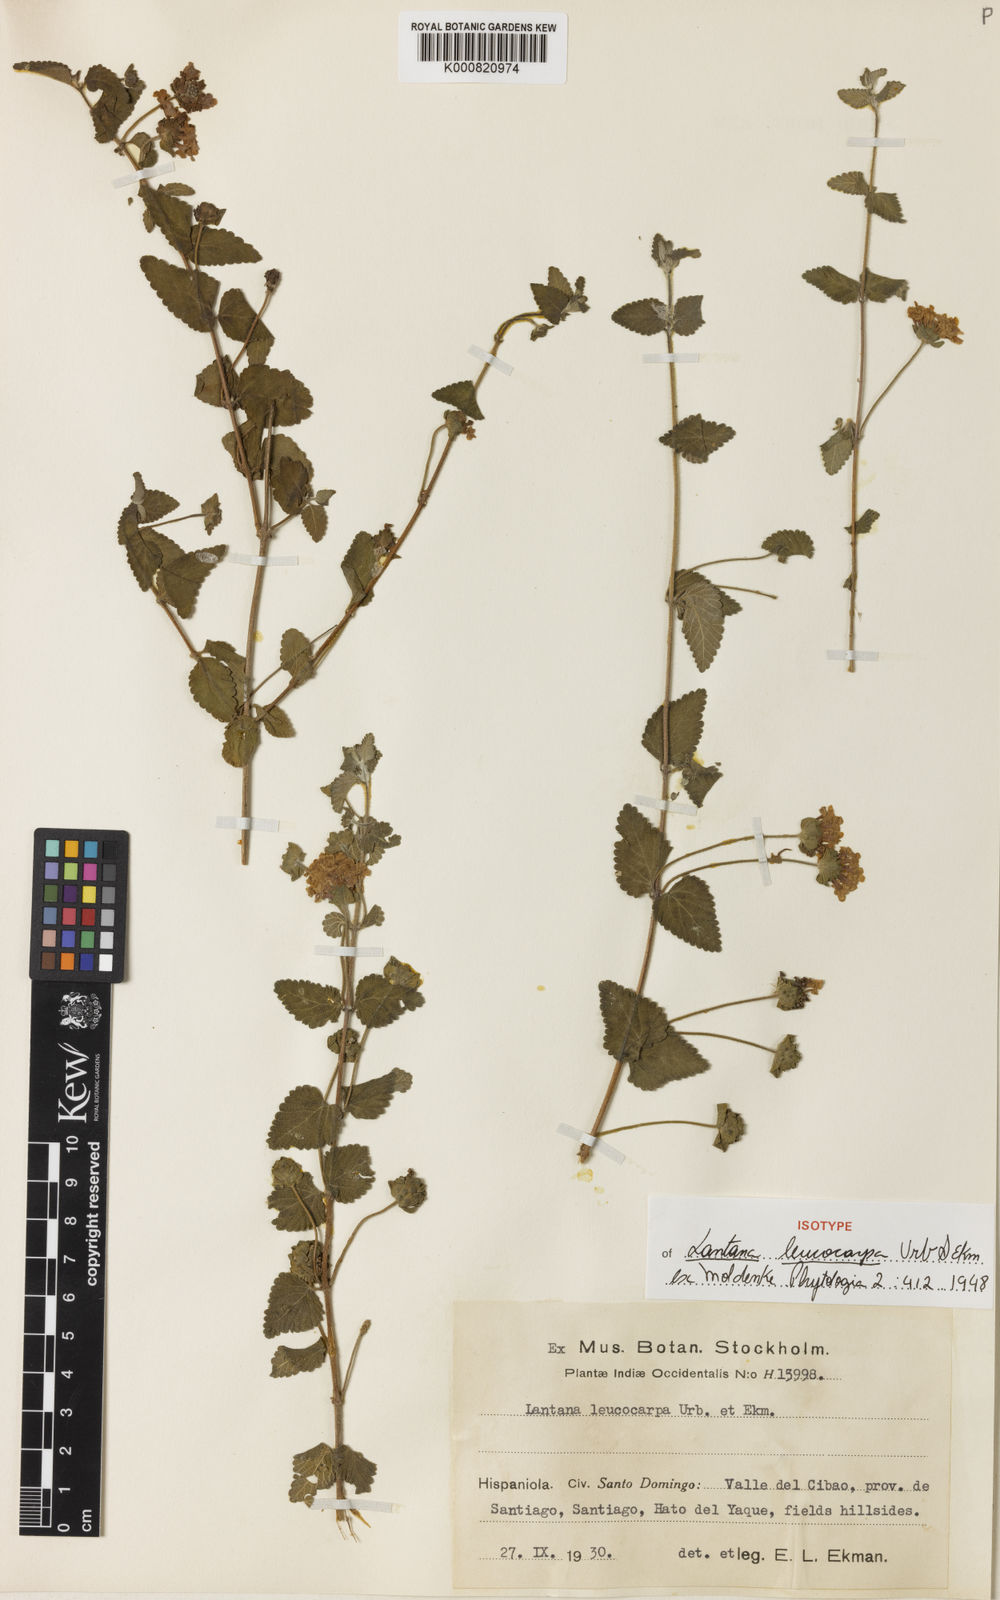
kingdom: Plantae
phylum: Tracheophyta
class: Magnoliopsida
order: Lamiales
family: Verbenaceae
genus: Lantana
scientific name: Lantana leucocarpa
